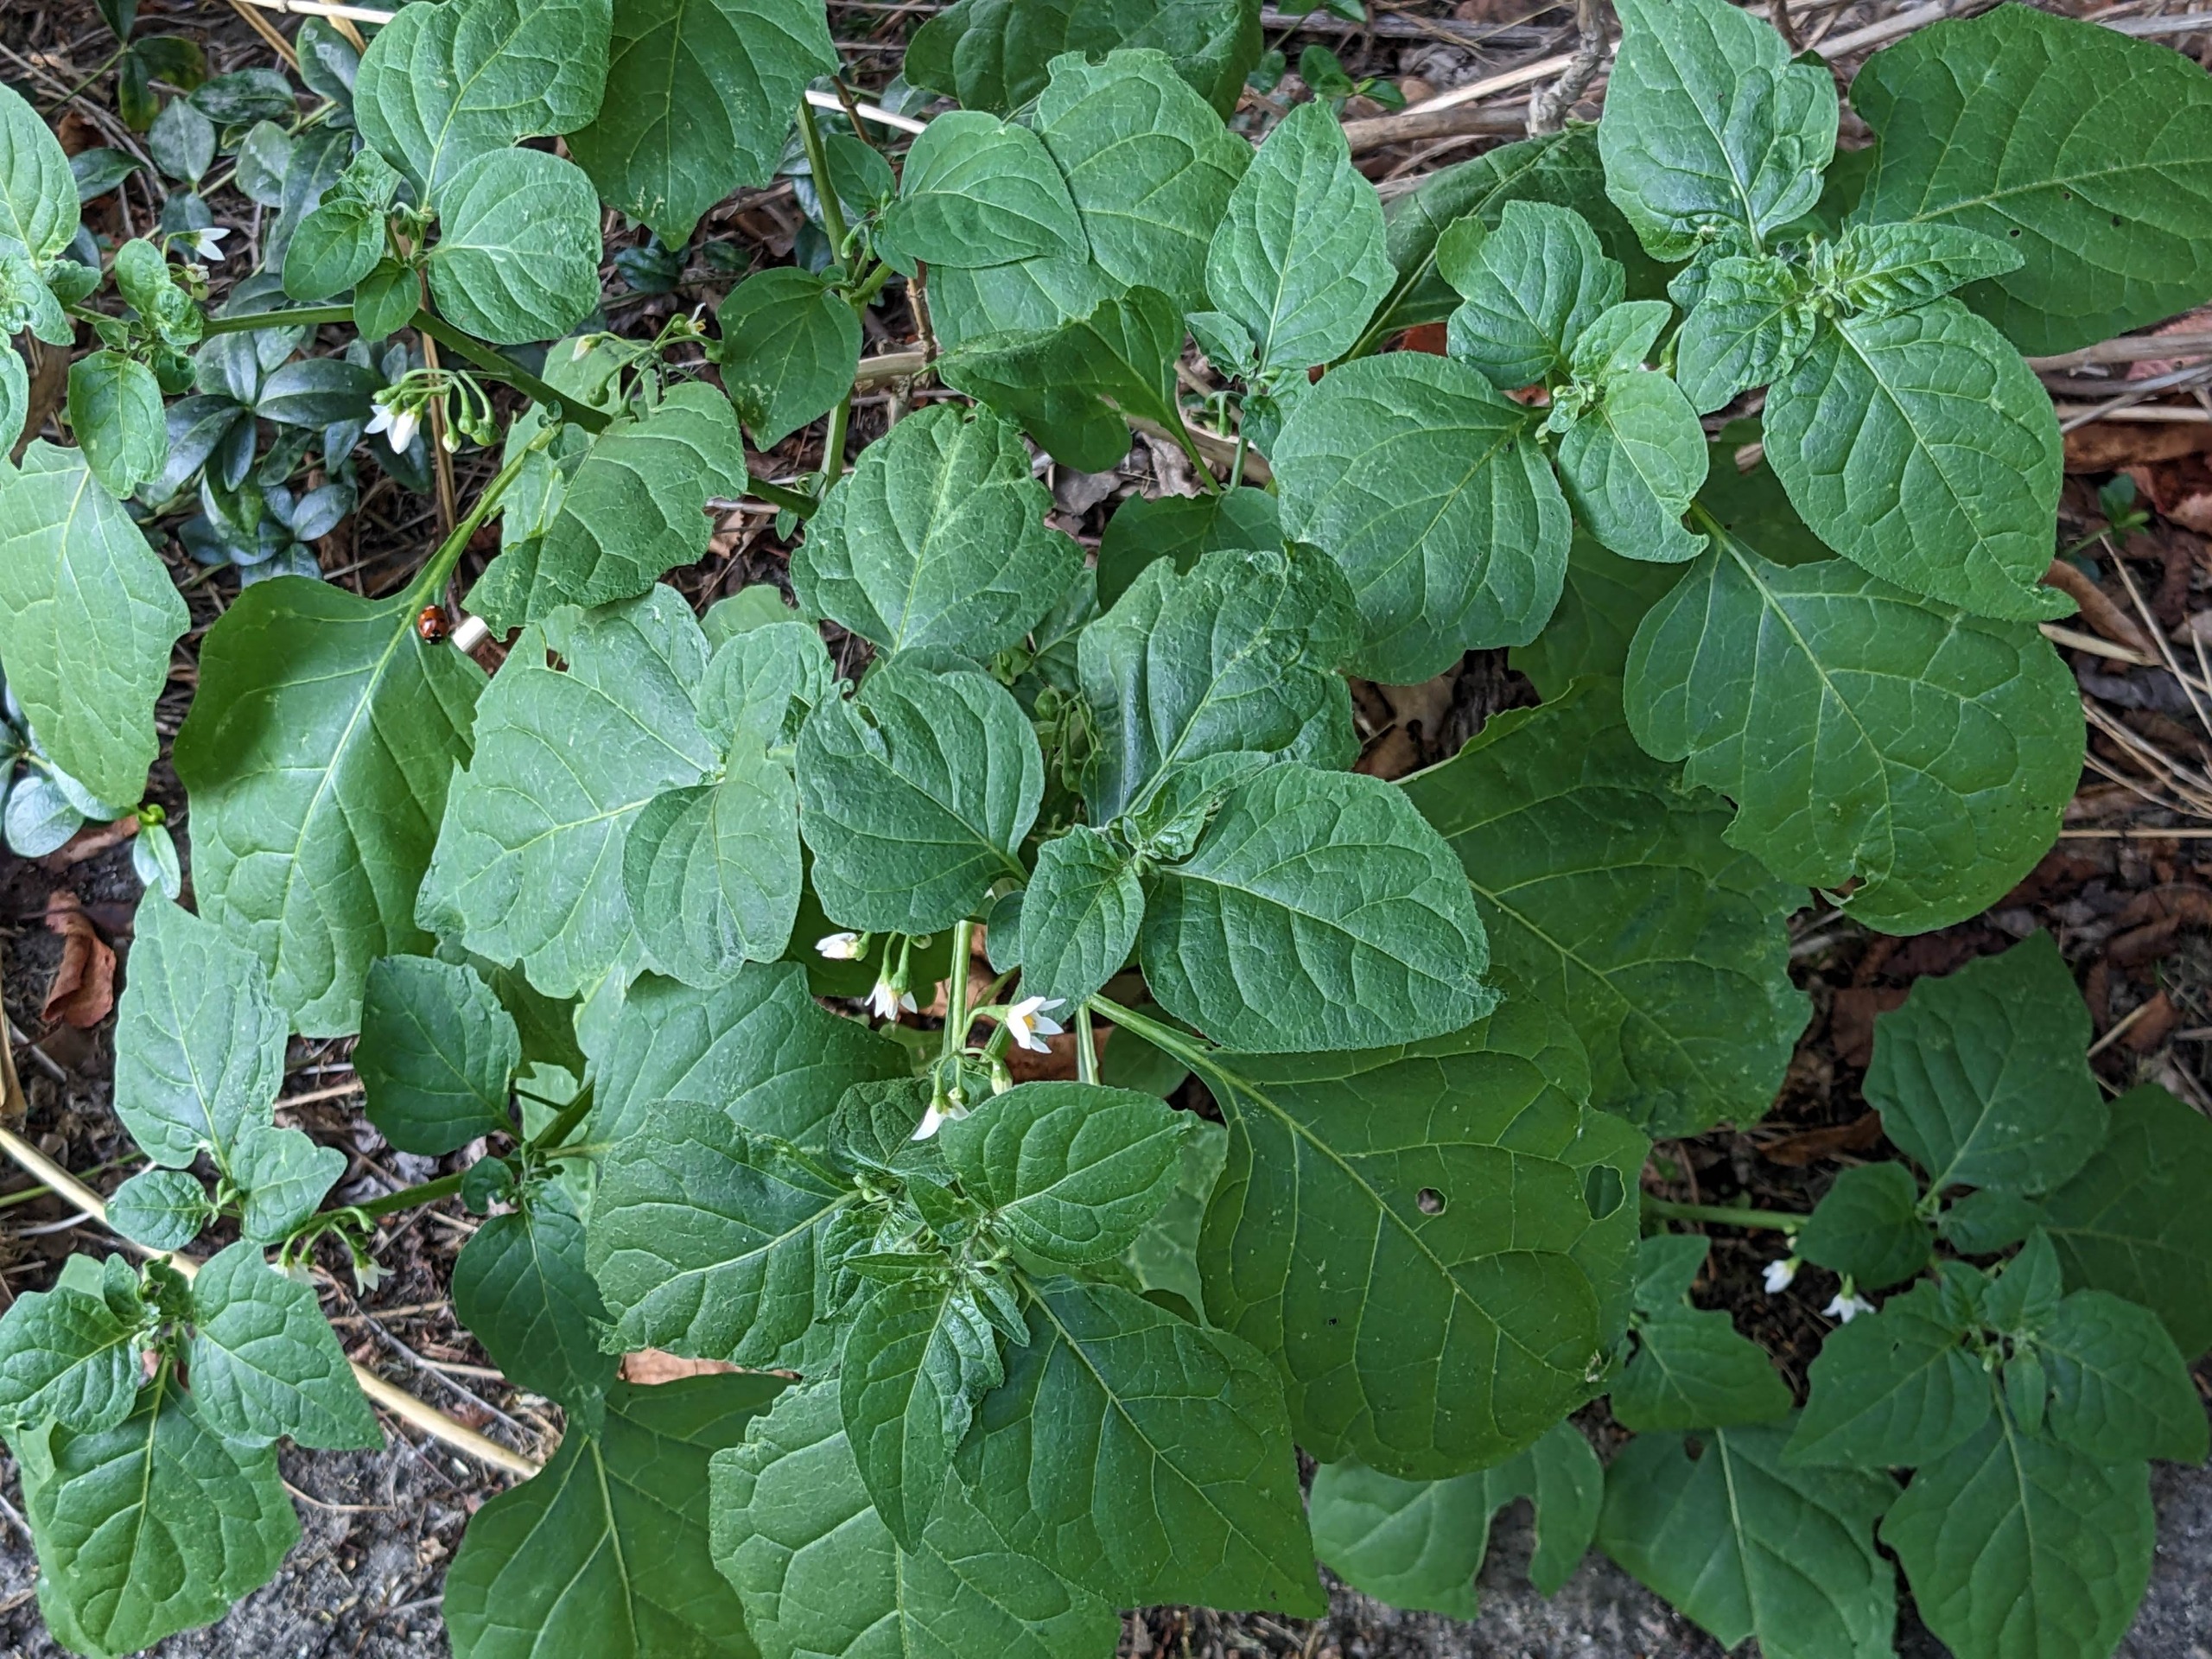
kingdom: Plantae
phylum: Tracheophyta
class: Magnoliopsida
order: Solanales
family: Solanaceae
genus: Solanum
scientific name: Solanum nigrum
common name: Sort natskygge
